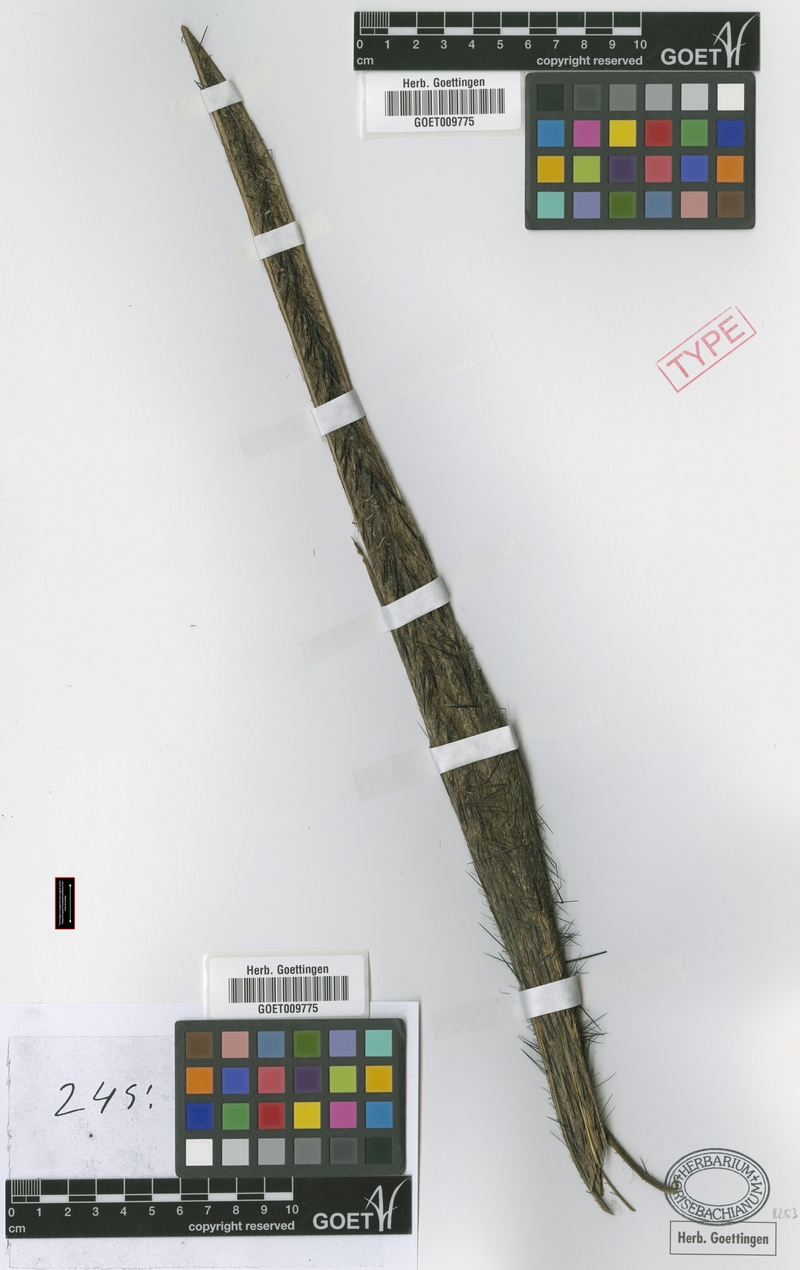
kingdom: Plantae
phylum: Tracheophyta
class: Liliopsida
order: Arecales
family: Arecaceae
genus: Astrocaryum
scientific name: Astrocaryum aculeatum
